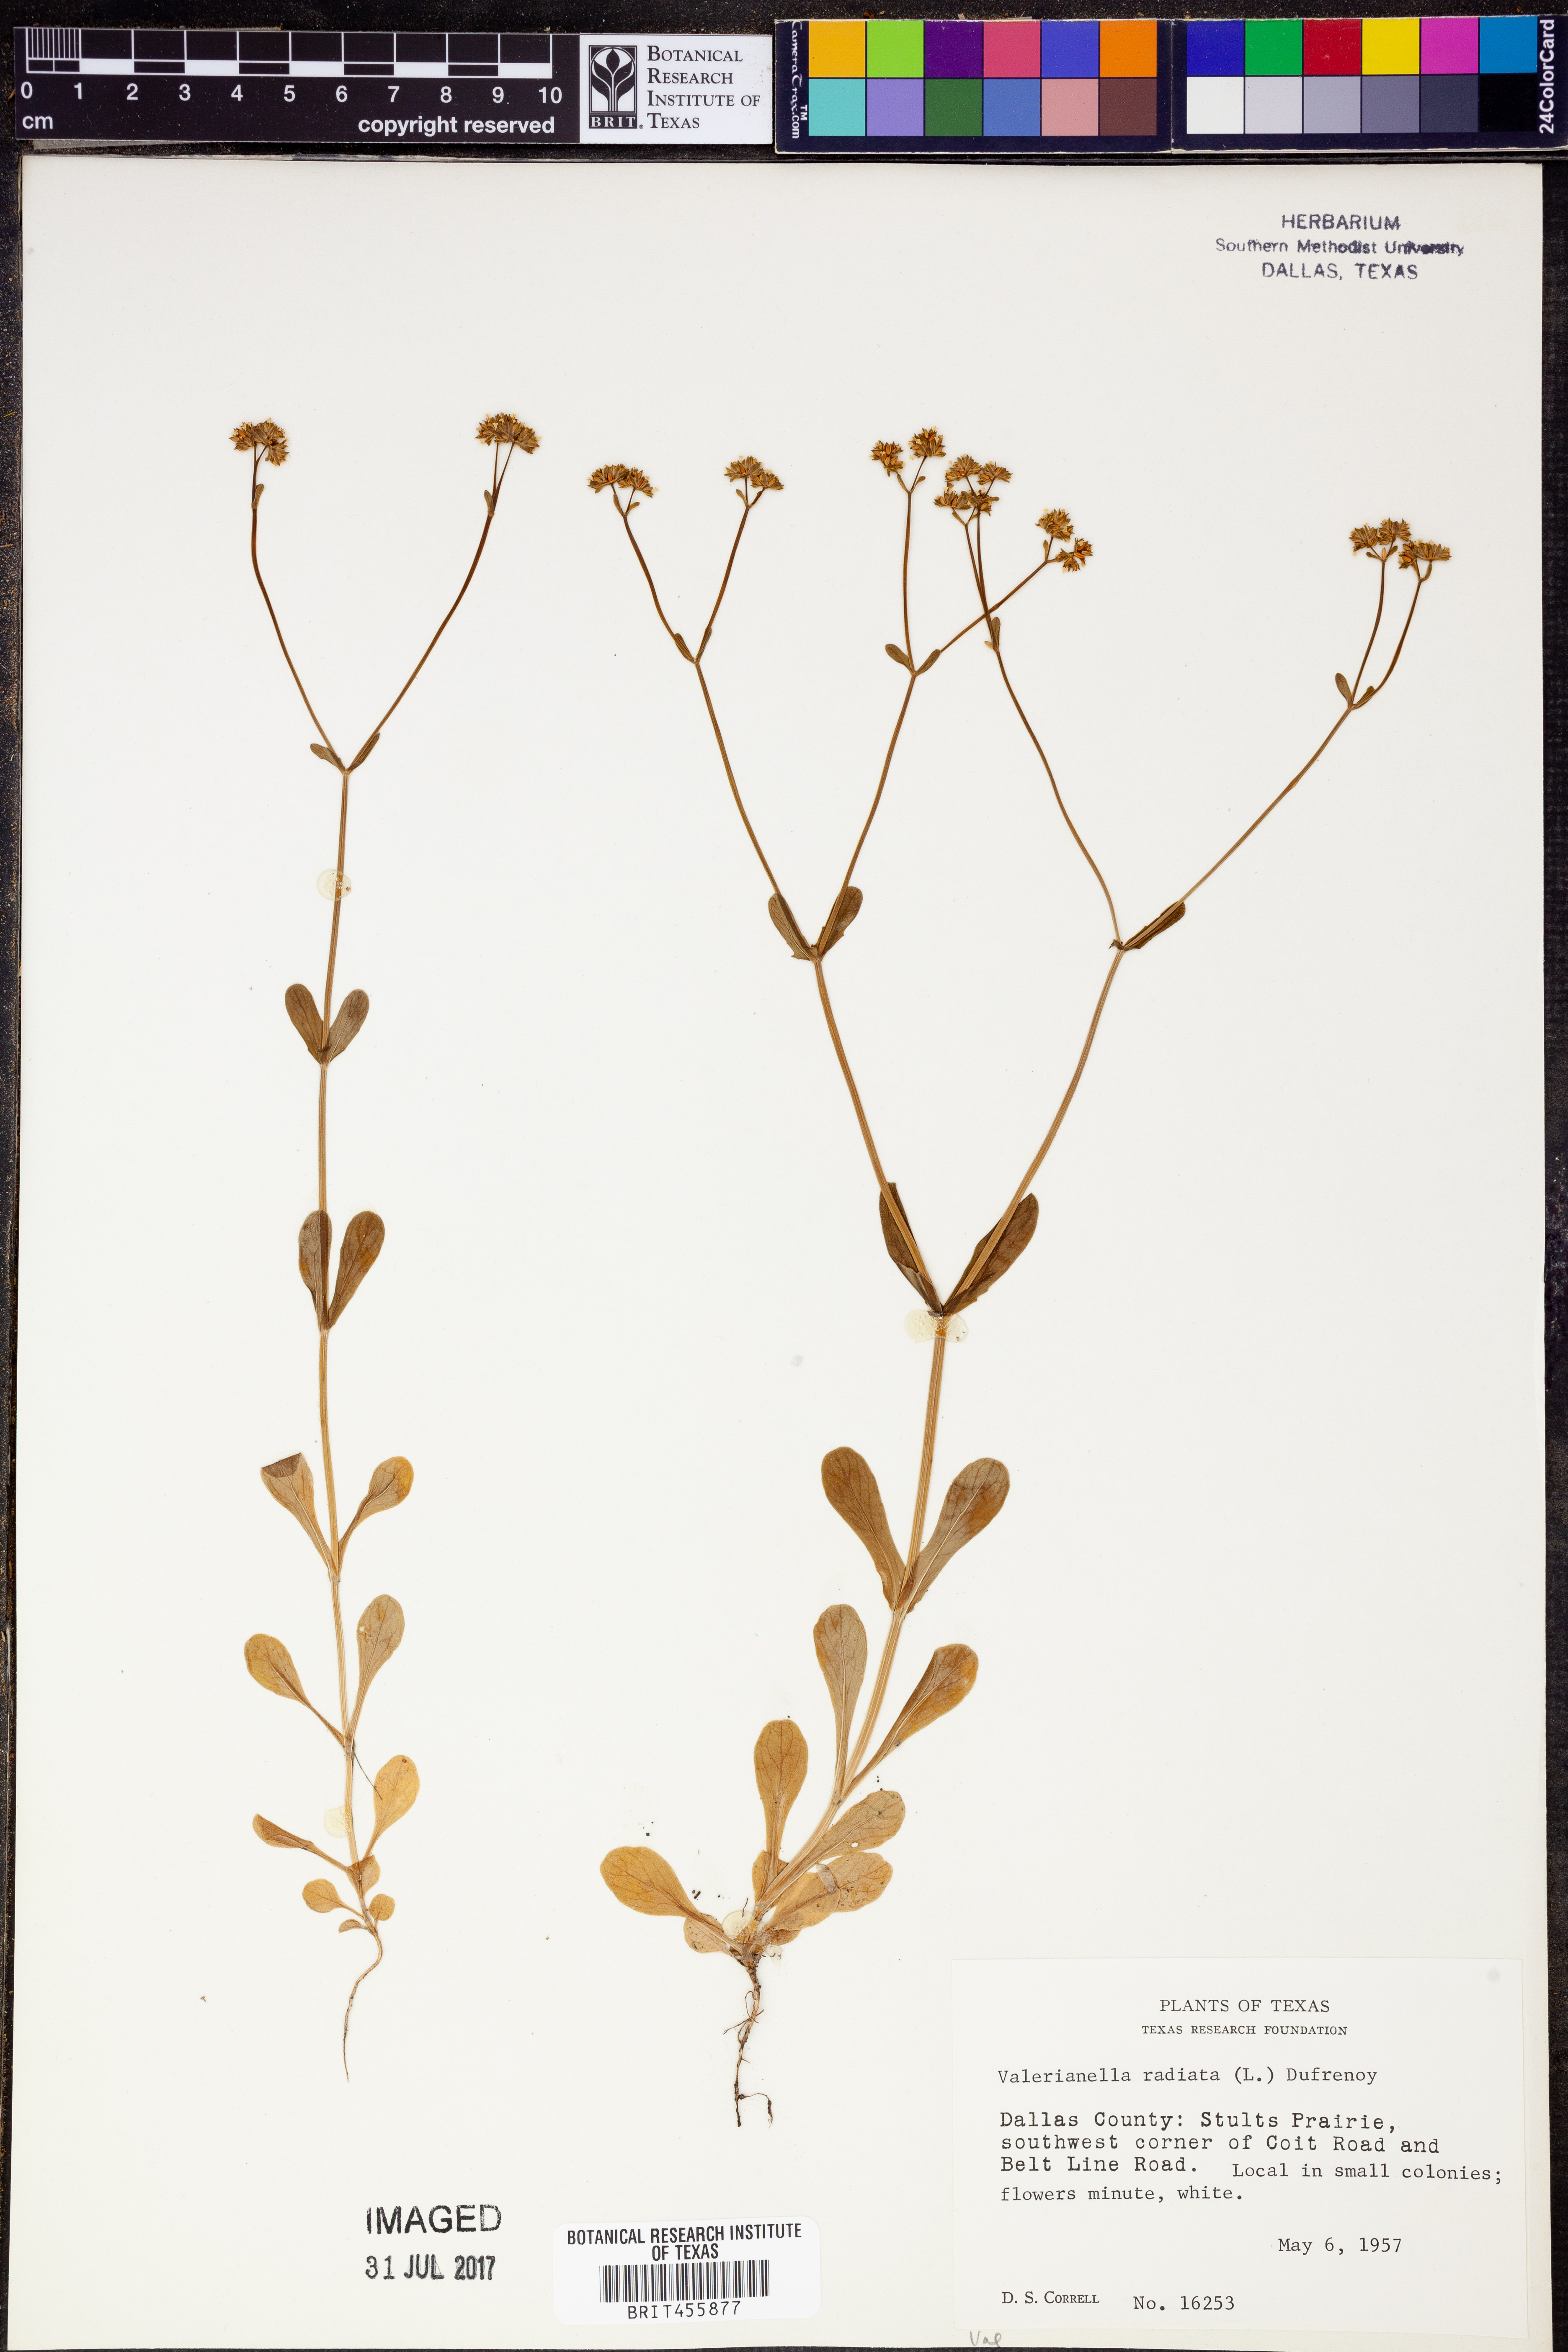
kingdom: Plantae
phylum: Tracheophyta
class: Magnoliopsida
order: Dipsacales
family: Caprifoliaceae
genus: Valerianella
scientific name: Valerianella radiata
